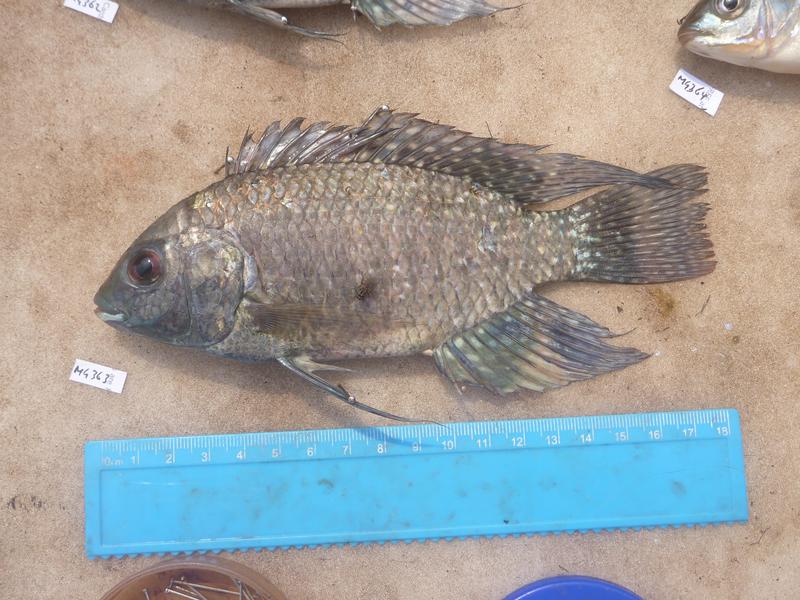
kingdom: Animalia
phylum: Chordata
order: Perciformes
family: Cichlidae
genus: Oreochromis
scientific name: Oreochromis leucostictus
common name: Blue spotted tilapia
